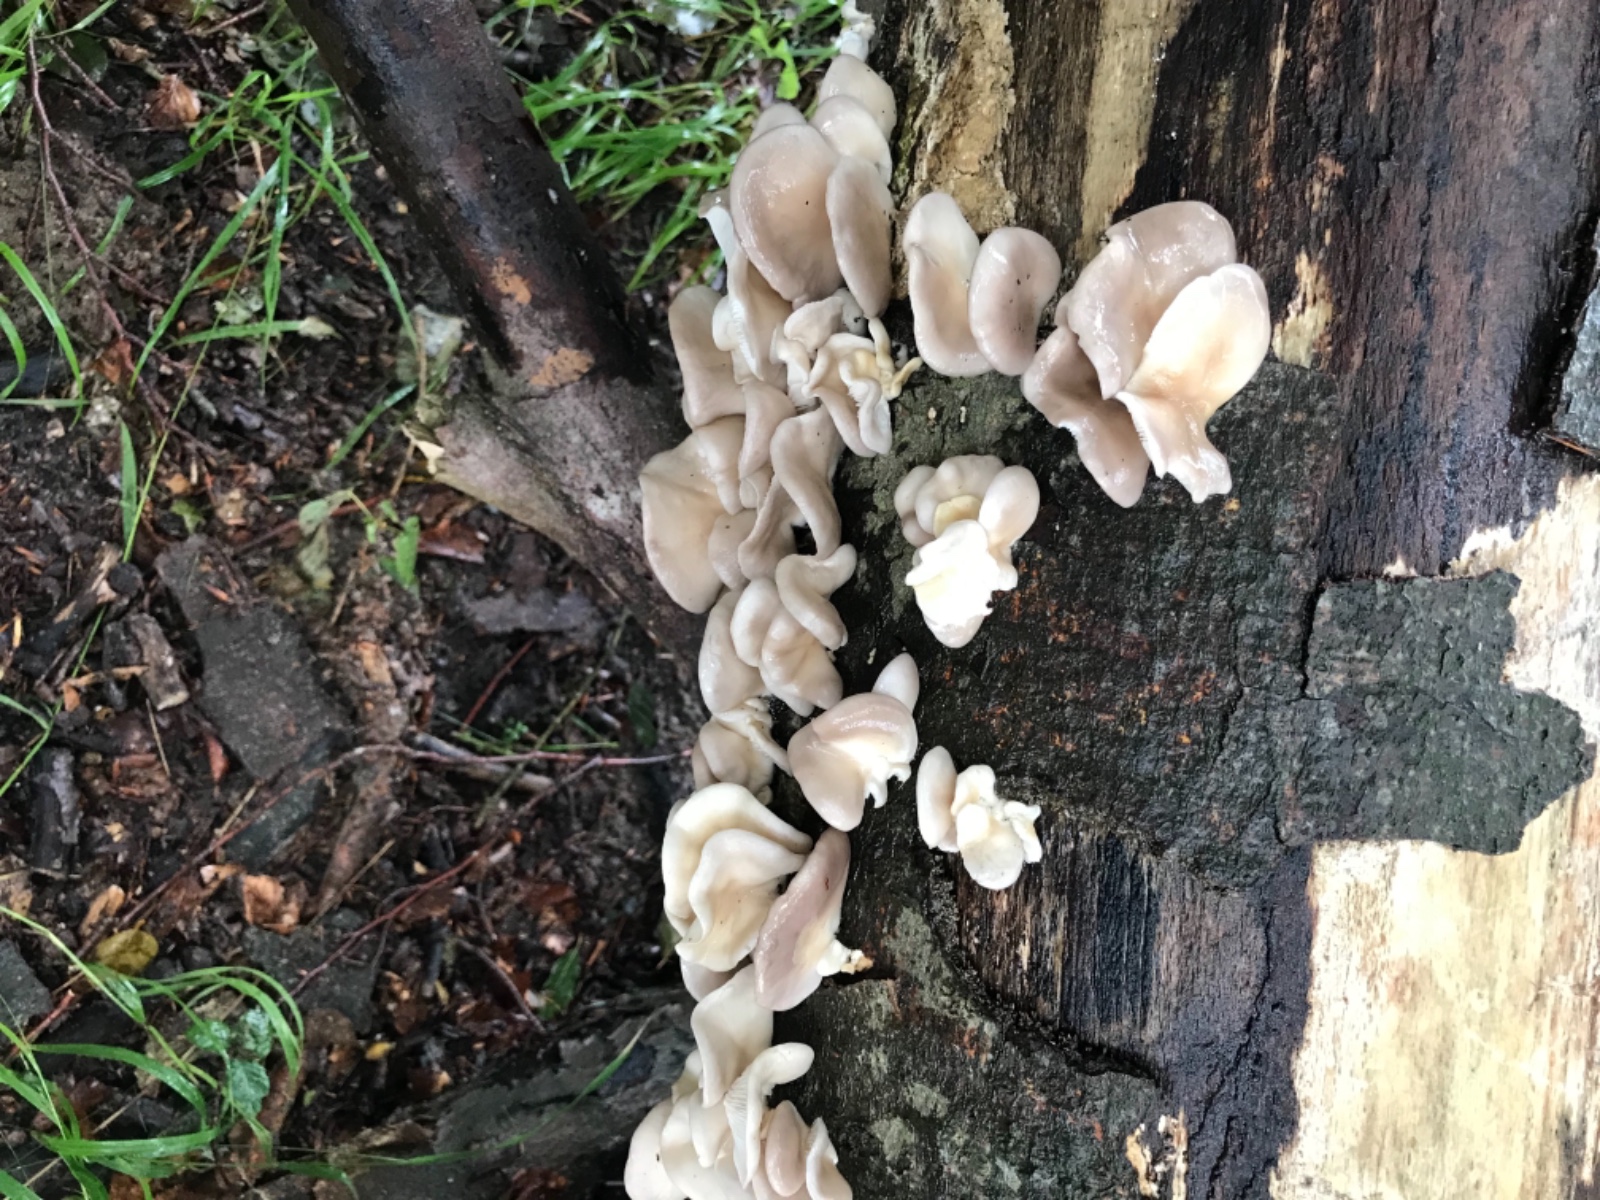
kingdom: Fungi
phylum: Basidiomycota
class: Agaricomycetes
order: Agaricales
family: Pleurotaceae
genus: Pleurotus
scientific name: Pleurotus pulmonarius
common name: sommer-østershat
